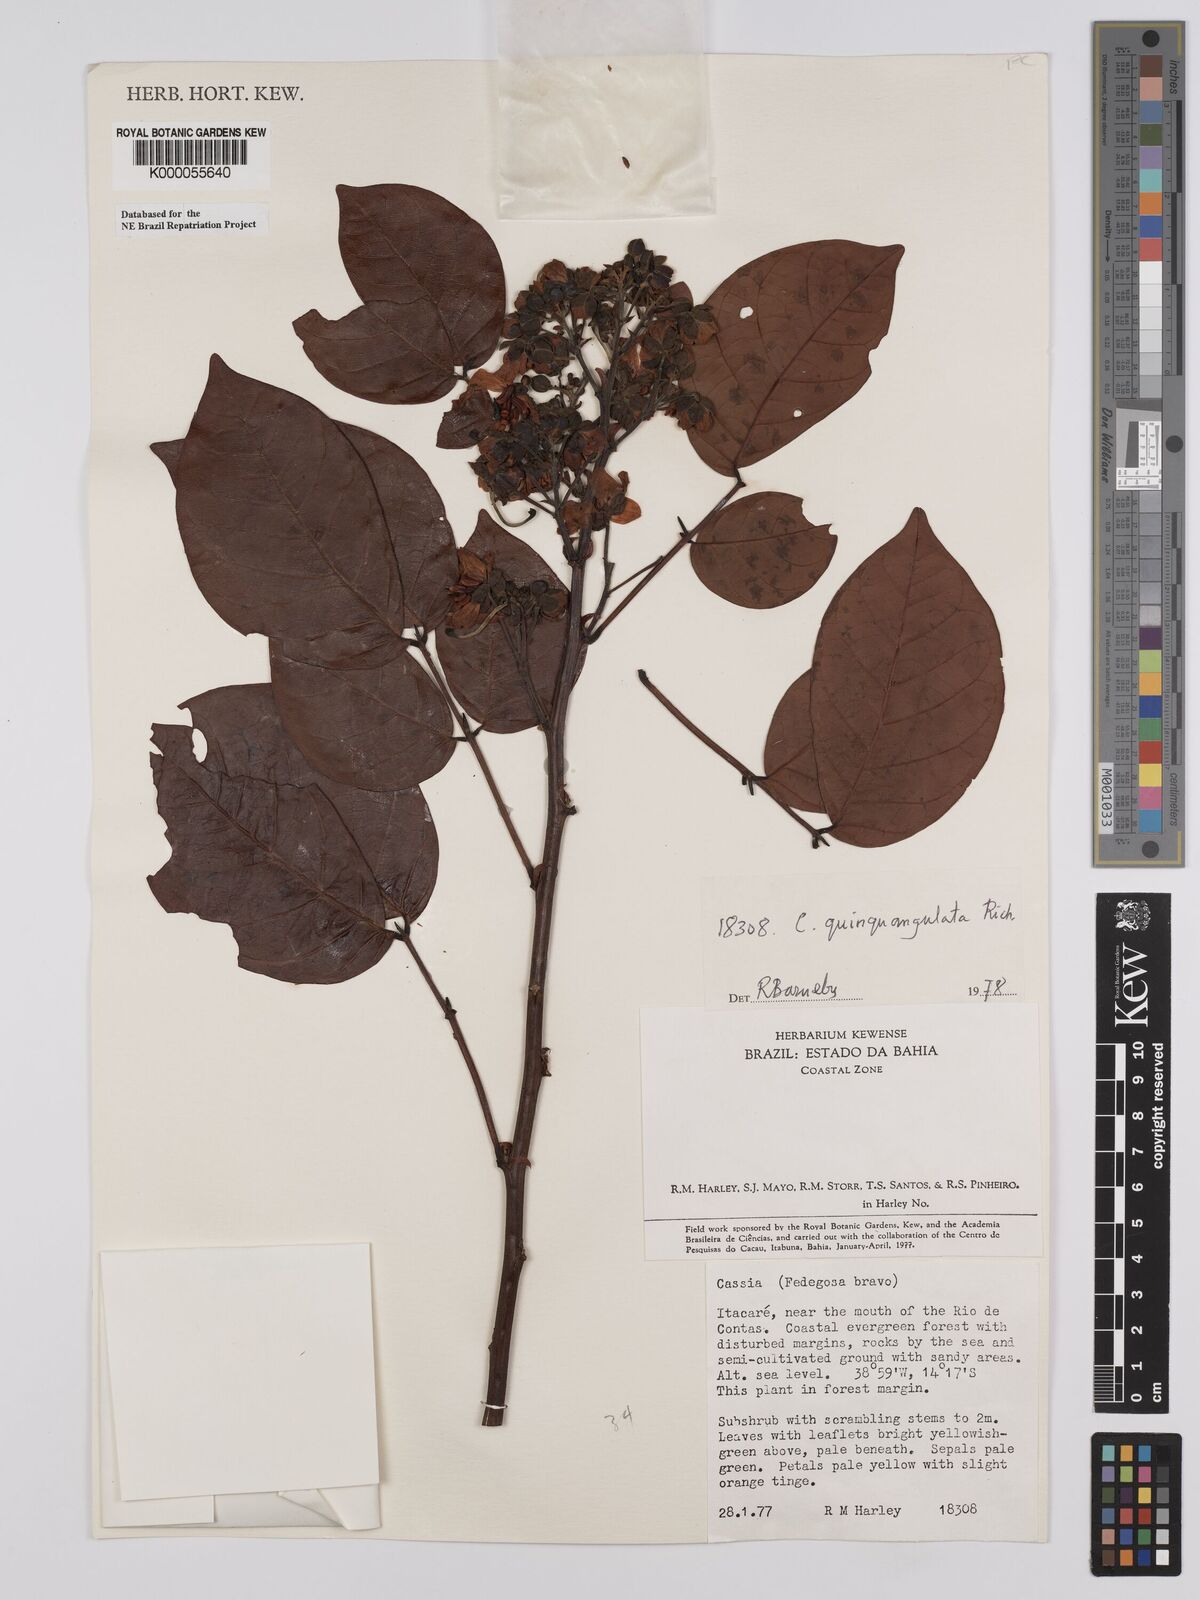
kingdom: Plantae
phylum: Tracheophyta
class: Magnoliopsida
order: Fabales
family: Fabaceae
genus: Senna
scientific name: Senna quinquangulata
